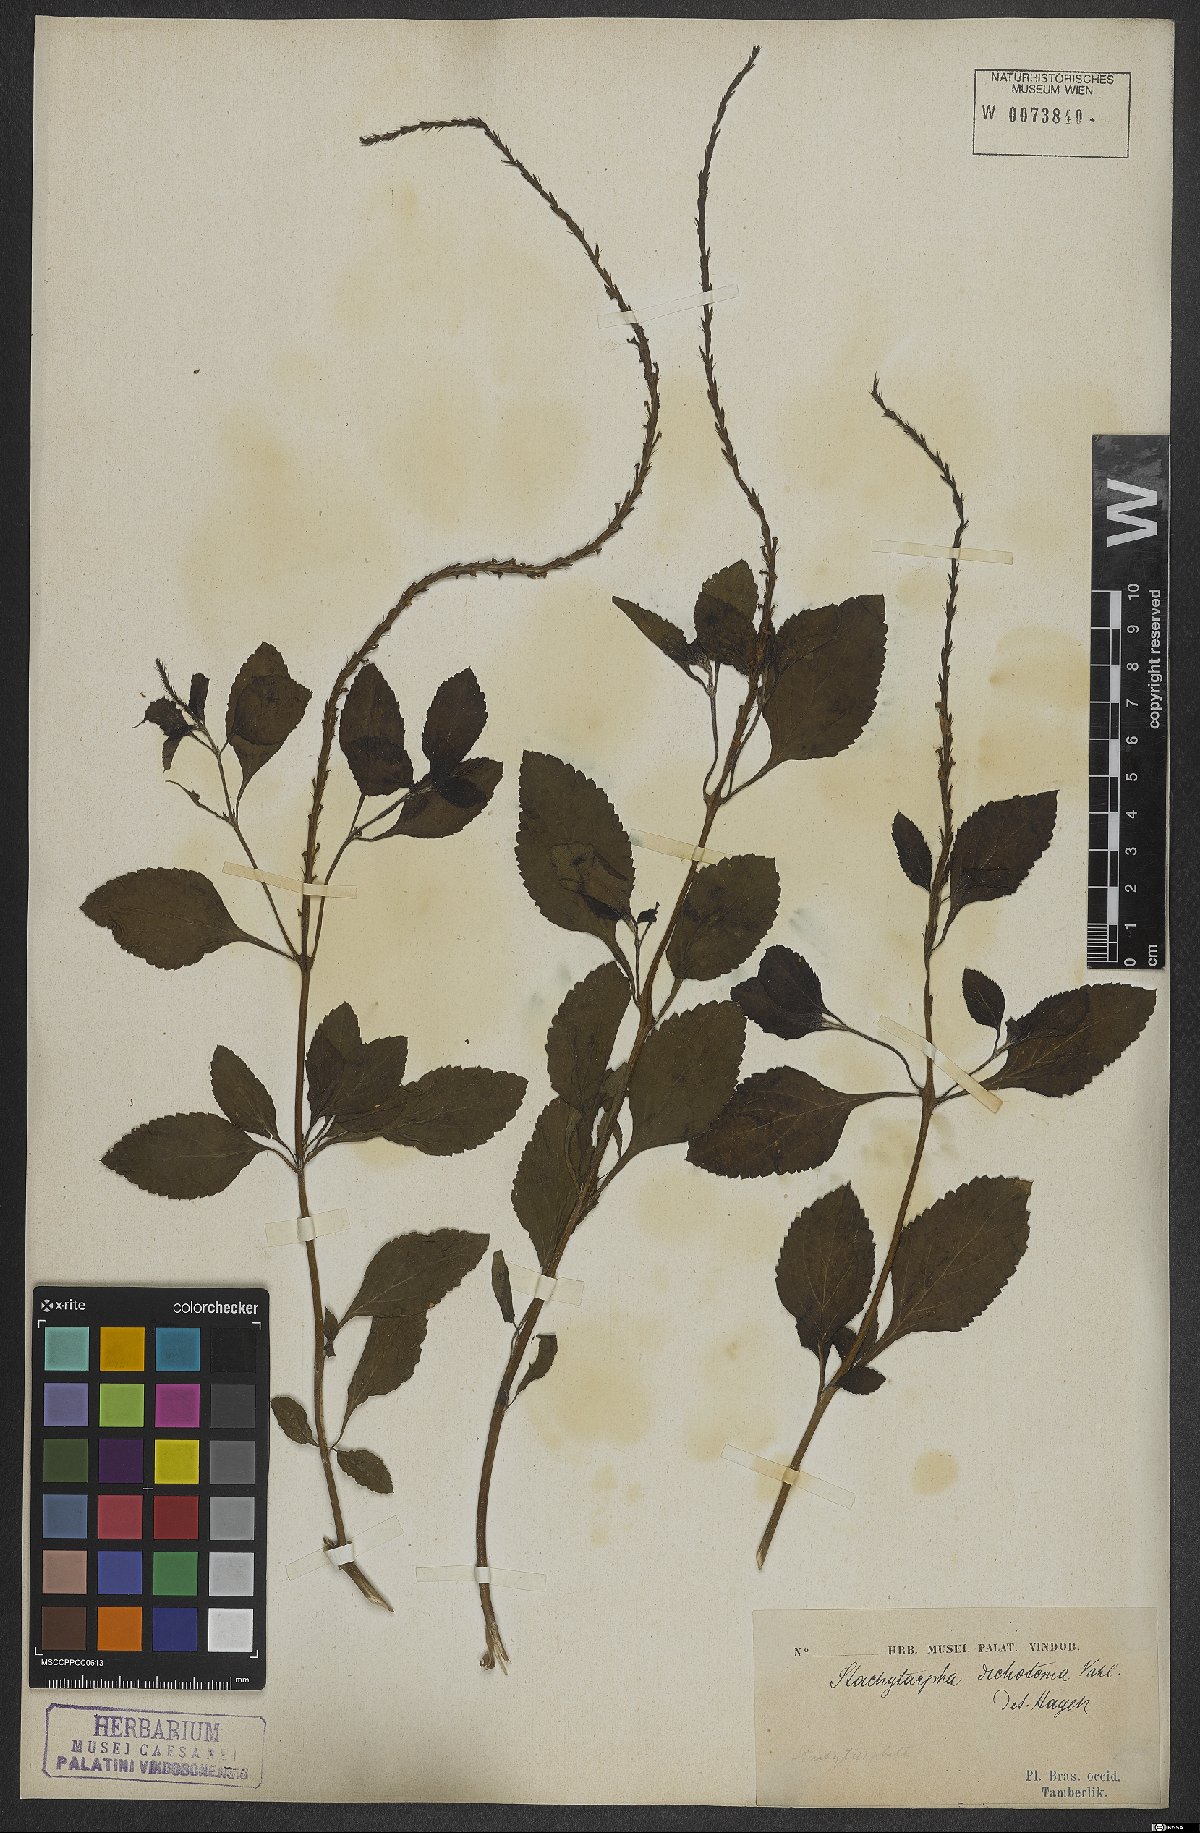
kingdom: Plantae
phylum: Tracheophyta
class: Magnoliopsida
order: Lamiales
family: Verbenaceae
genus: Stachytarpheta
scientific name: Stachytarpheta cayennensis
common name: Cayenne porterweed
